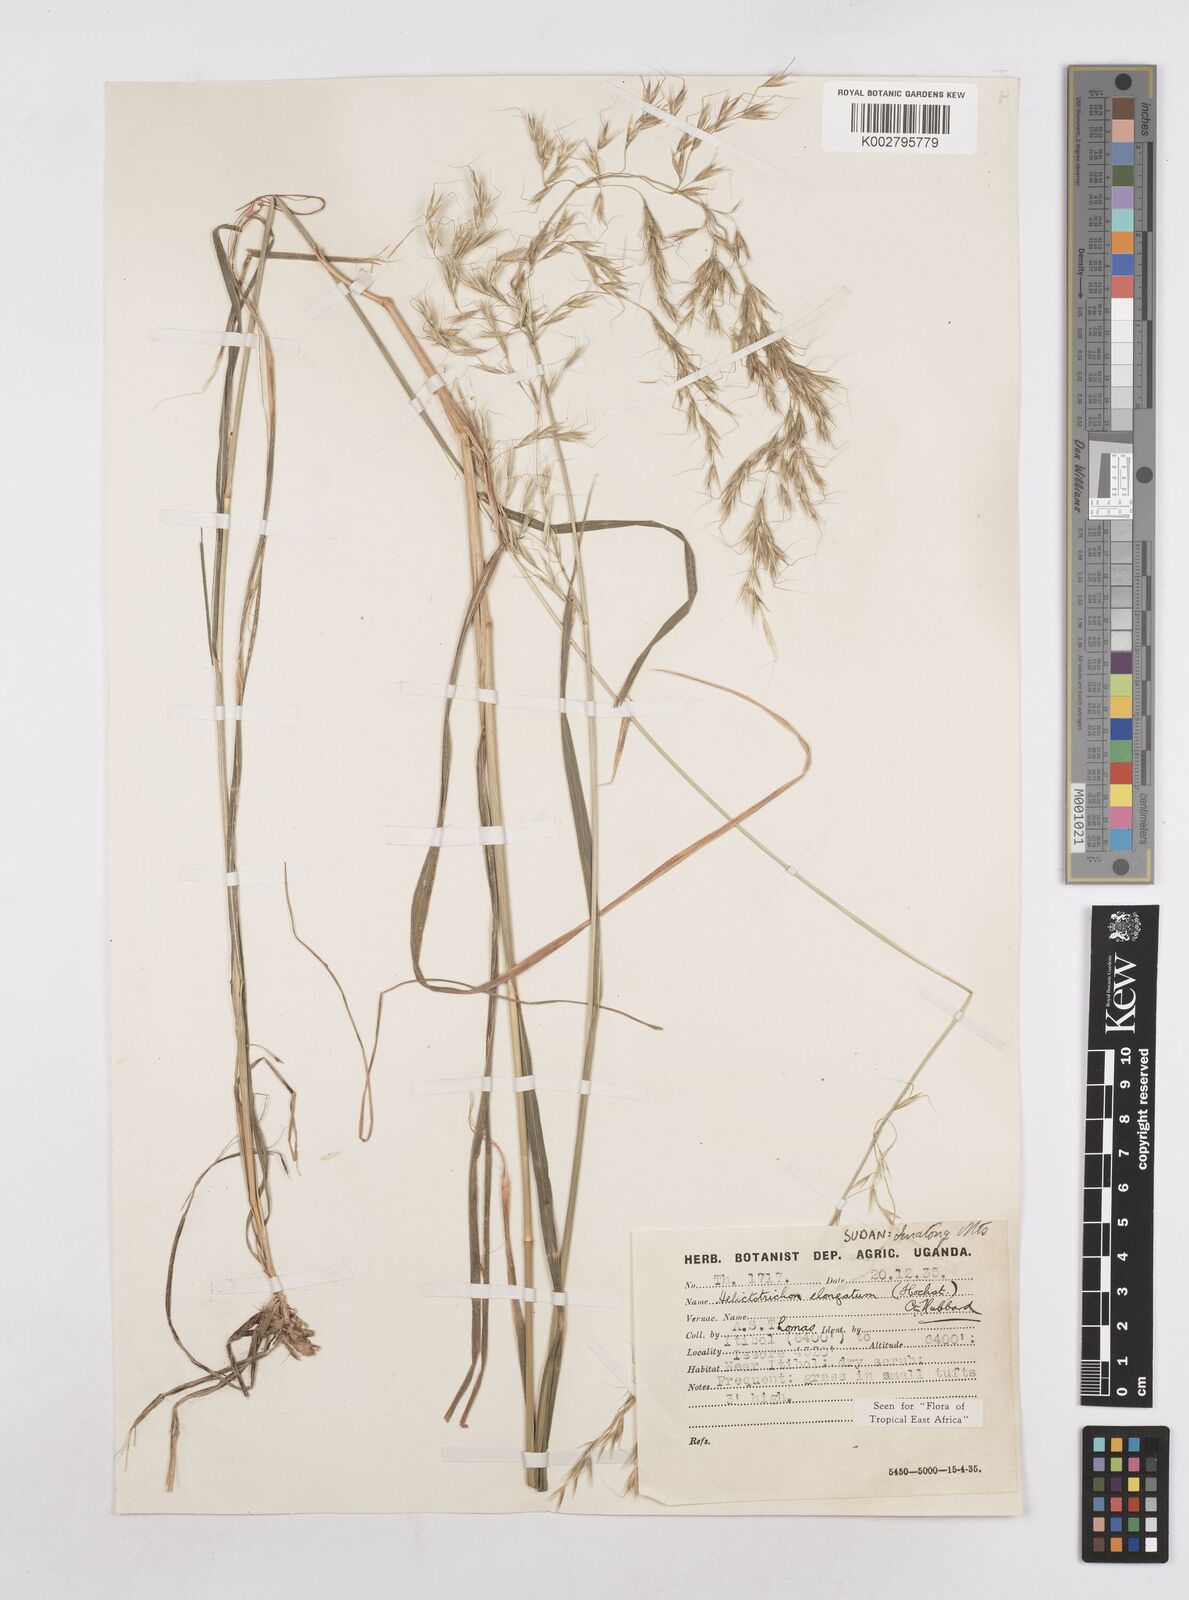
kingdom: Plantae
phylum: Tracheophyta
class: Liliopsida
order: Poales
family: Poaceae
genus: Trisetopsis
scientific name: Trisetopsis elongata
